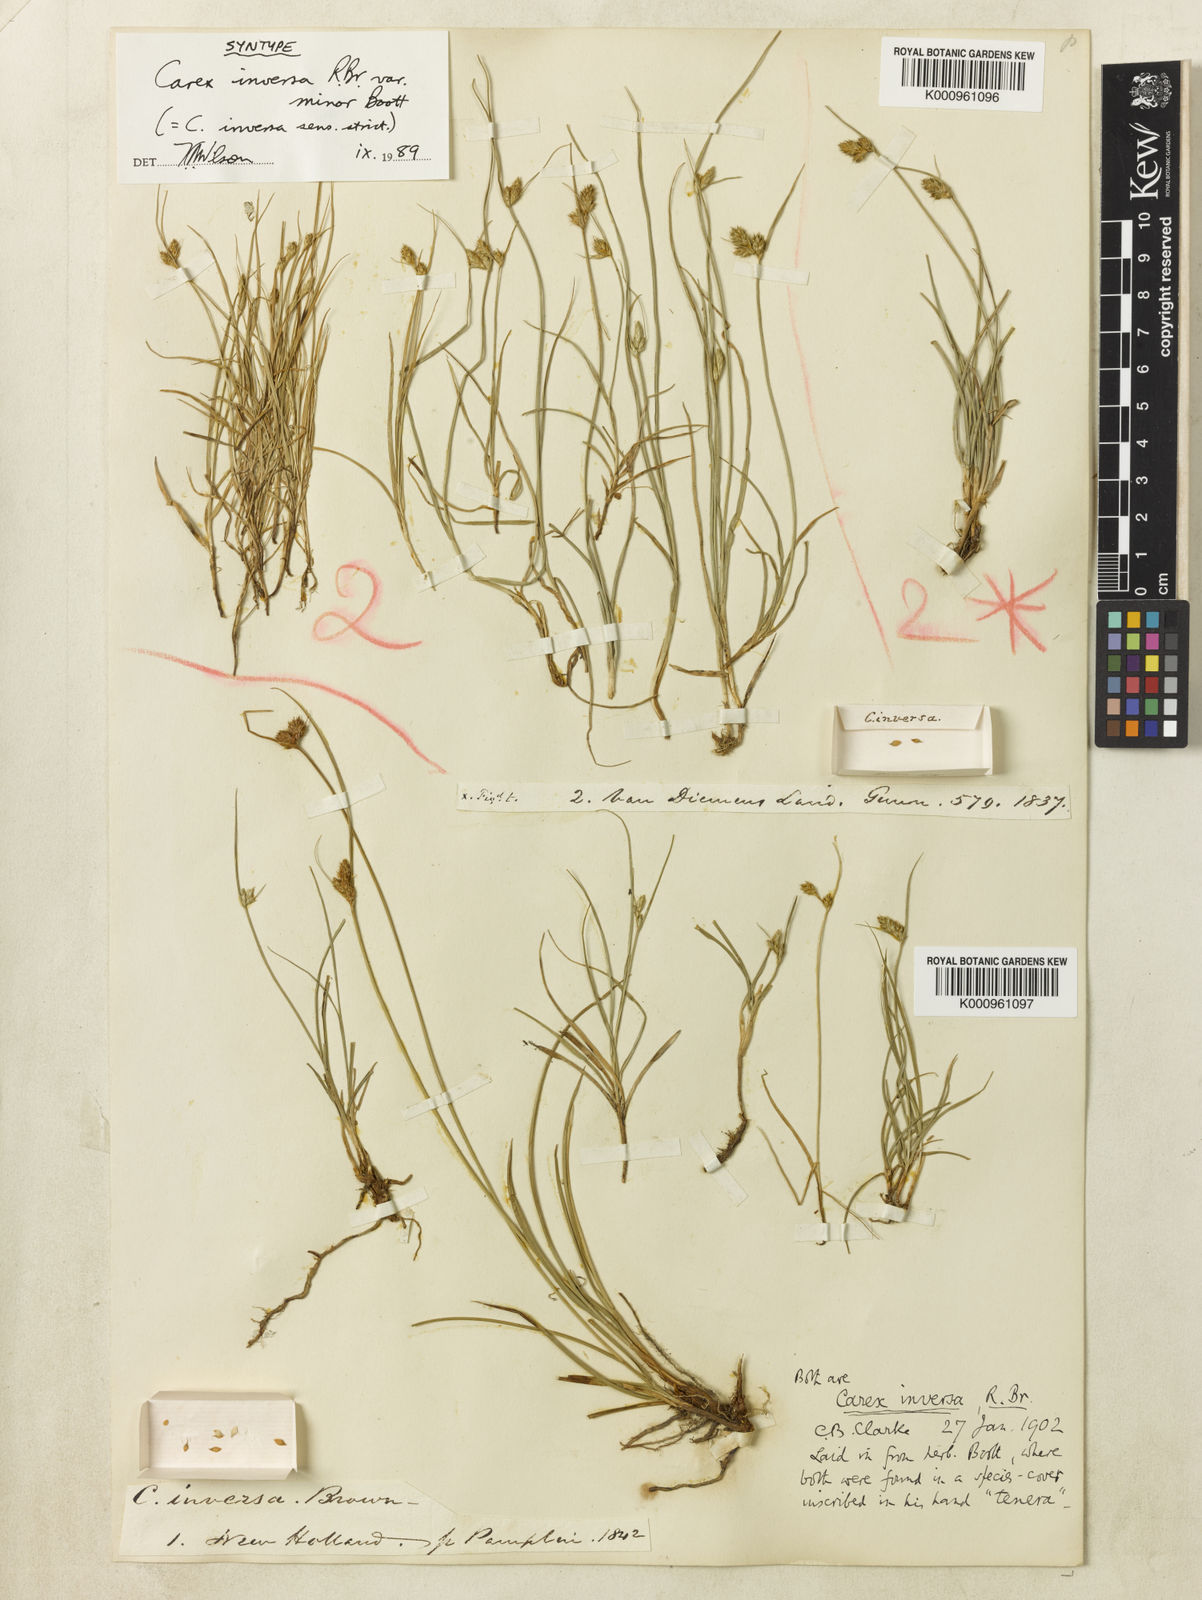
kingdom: Plantae
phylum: Tracheophyta
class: Liliopsida
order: Poales
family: Cyperaceae
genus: Carex
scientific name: Carex inversa
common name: Knob sedge
